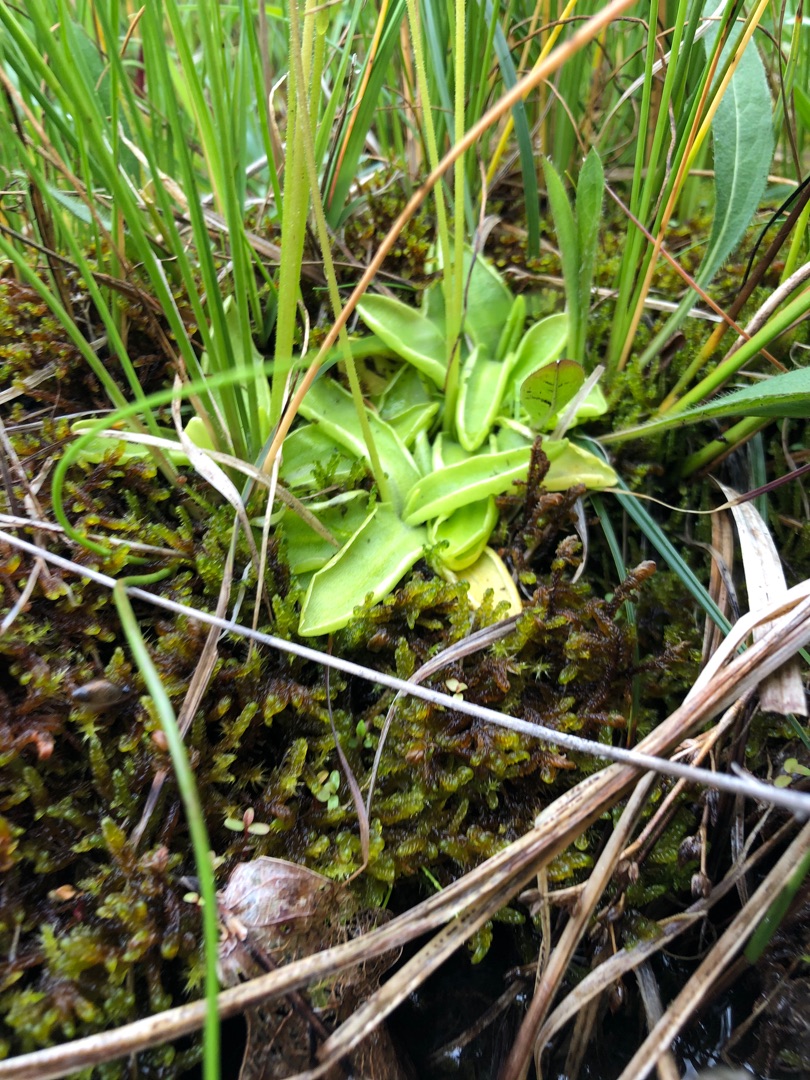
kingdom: Plantae
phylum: Tracheophyta
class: Magnoliopsida
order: Lamiales
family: Lentibulariaceae
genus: Pinguicula
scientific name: Pinguicula vulgaris
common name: Vibefedt
